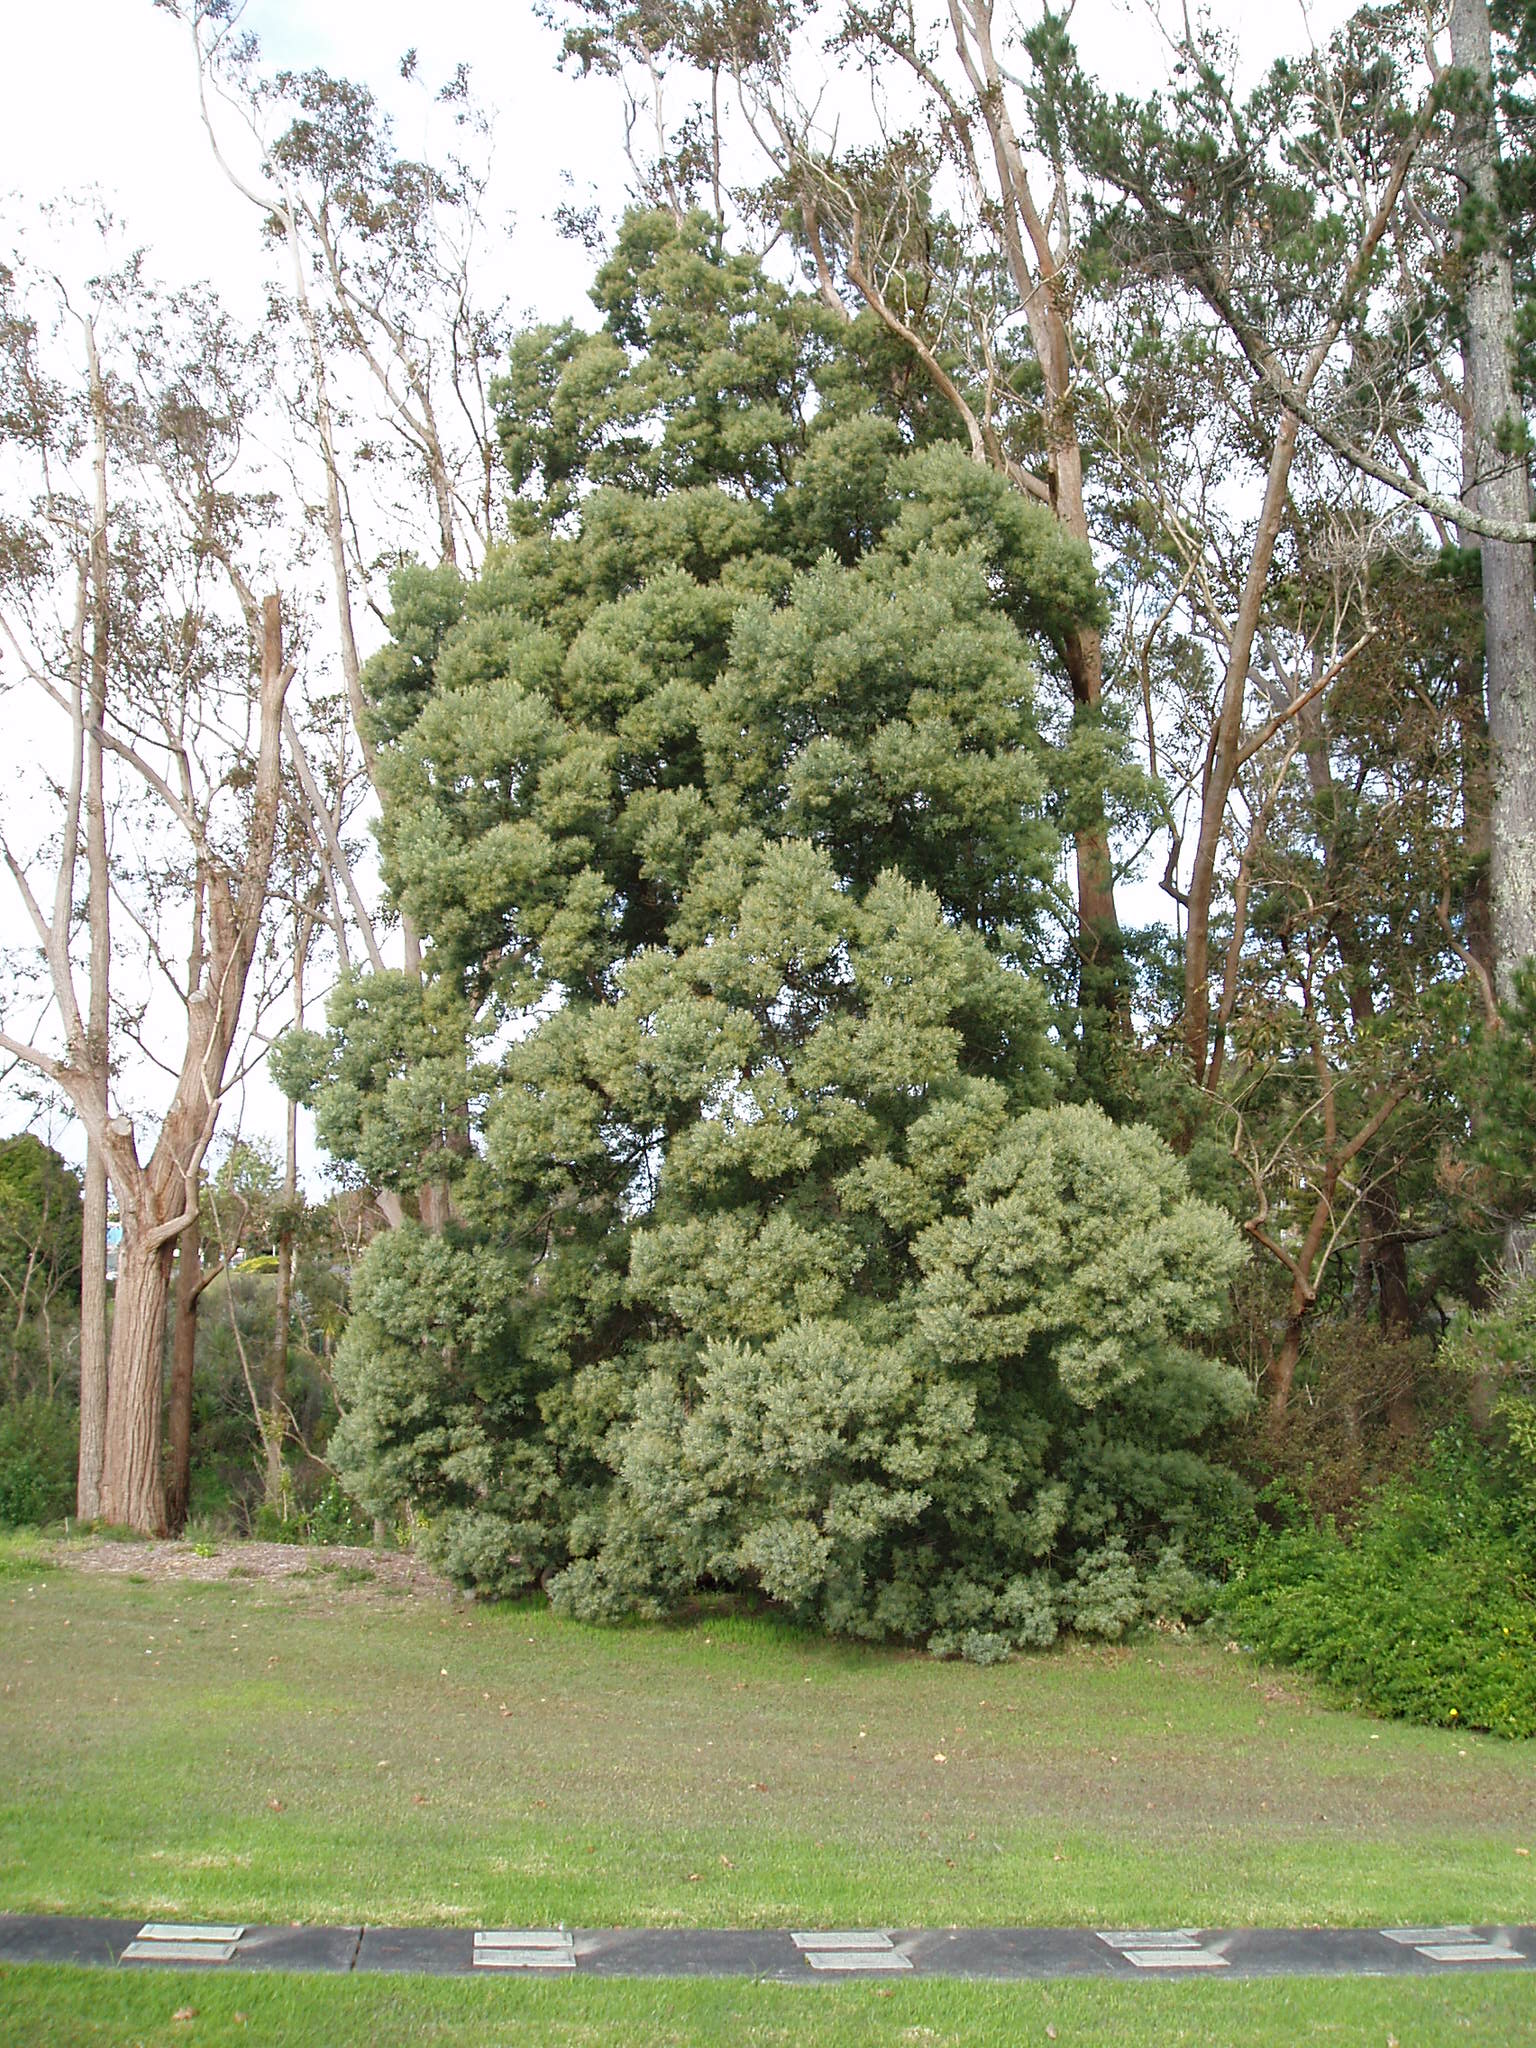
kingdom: Plantae
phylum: Tracheophyta
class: Magnoliopsida
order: Fabales
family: Fabaceae
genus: Acacia
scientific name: Acacia prominens
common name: Gosford wattle
